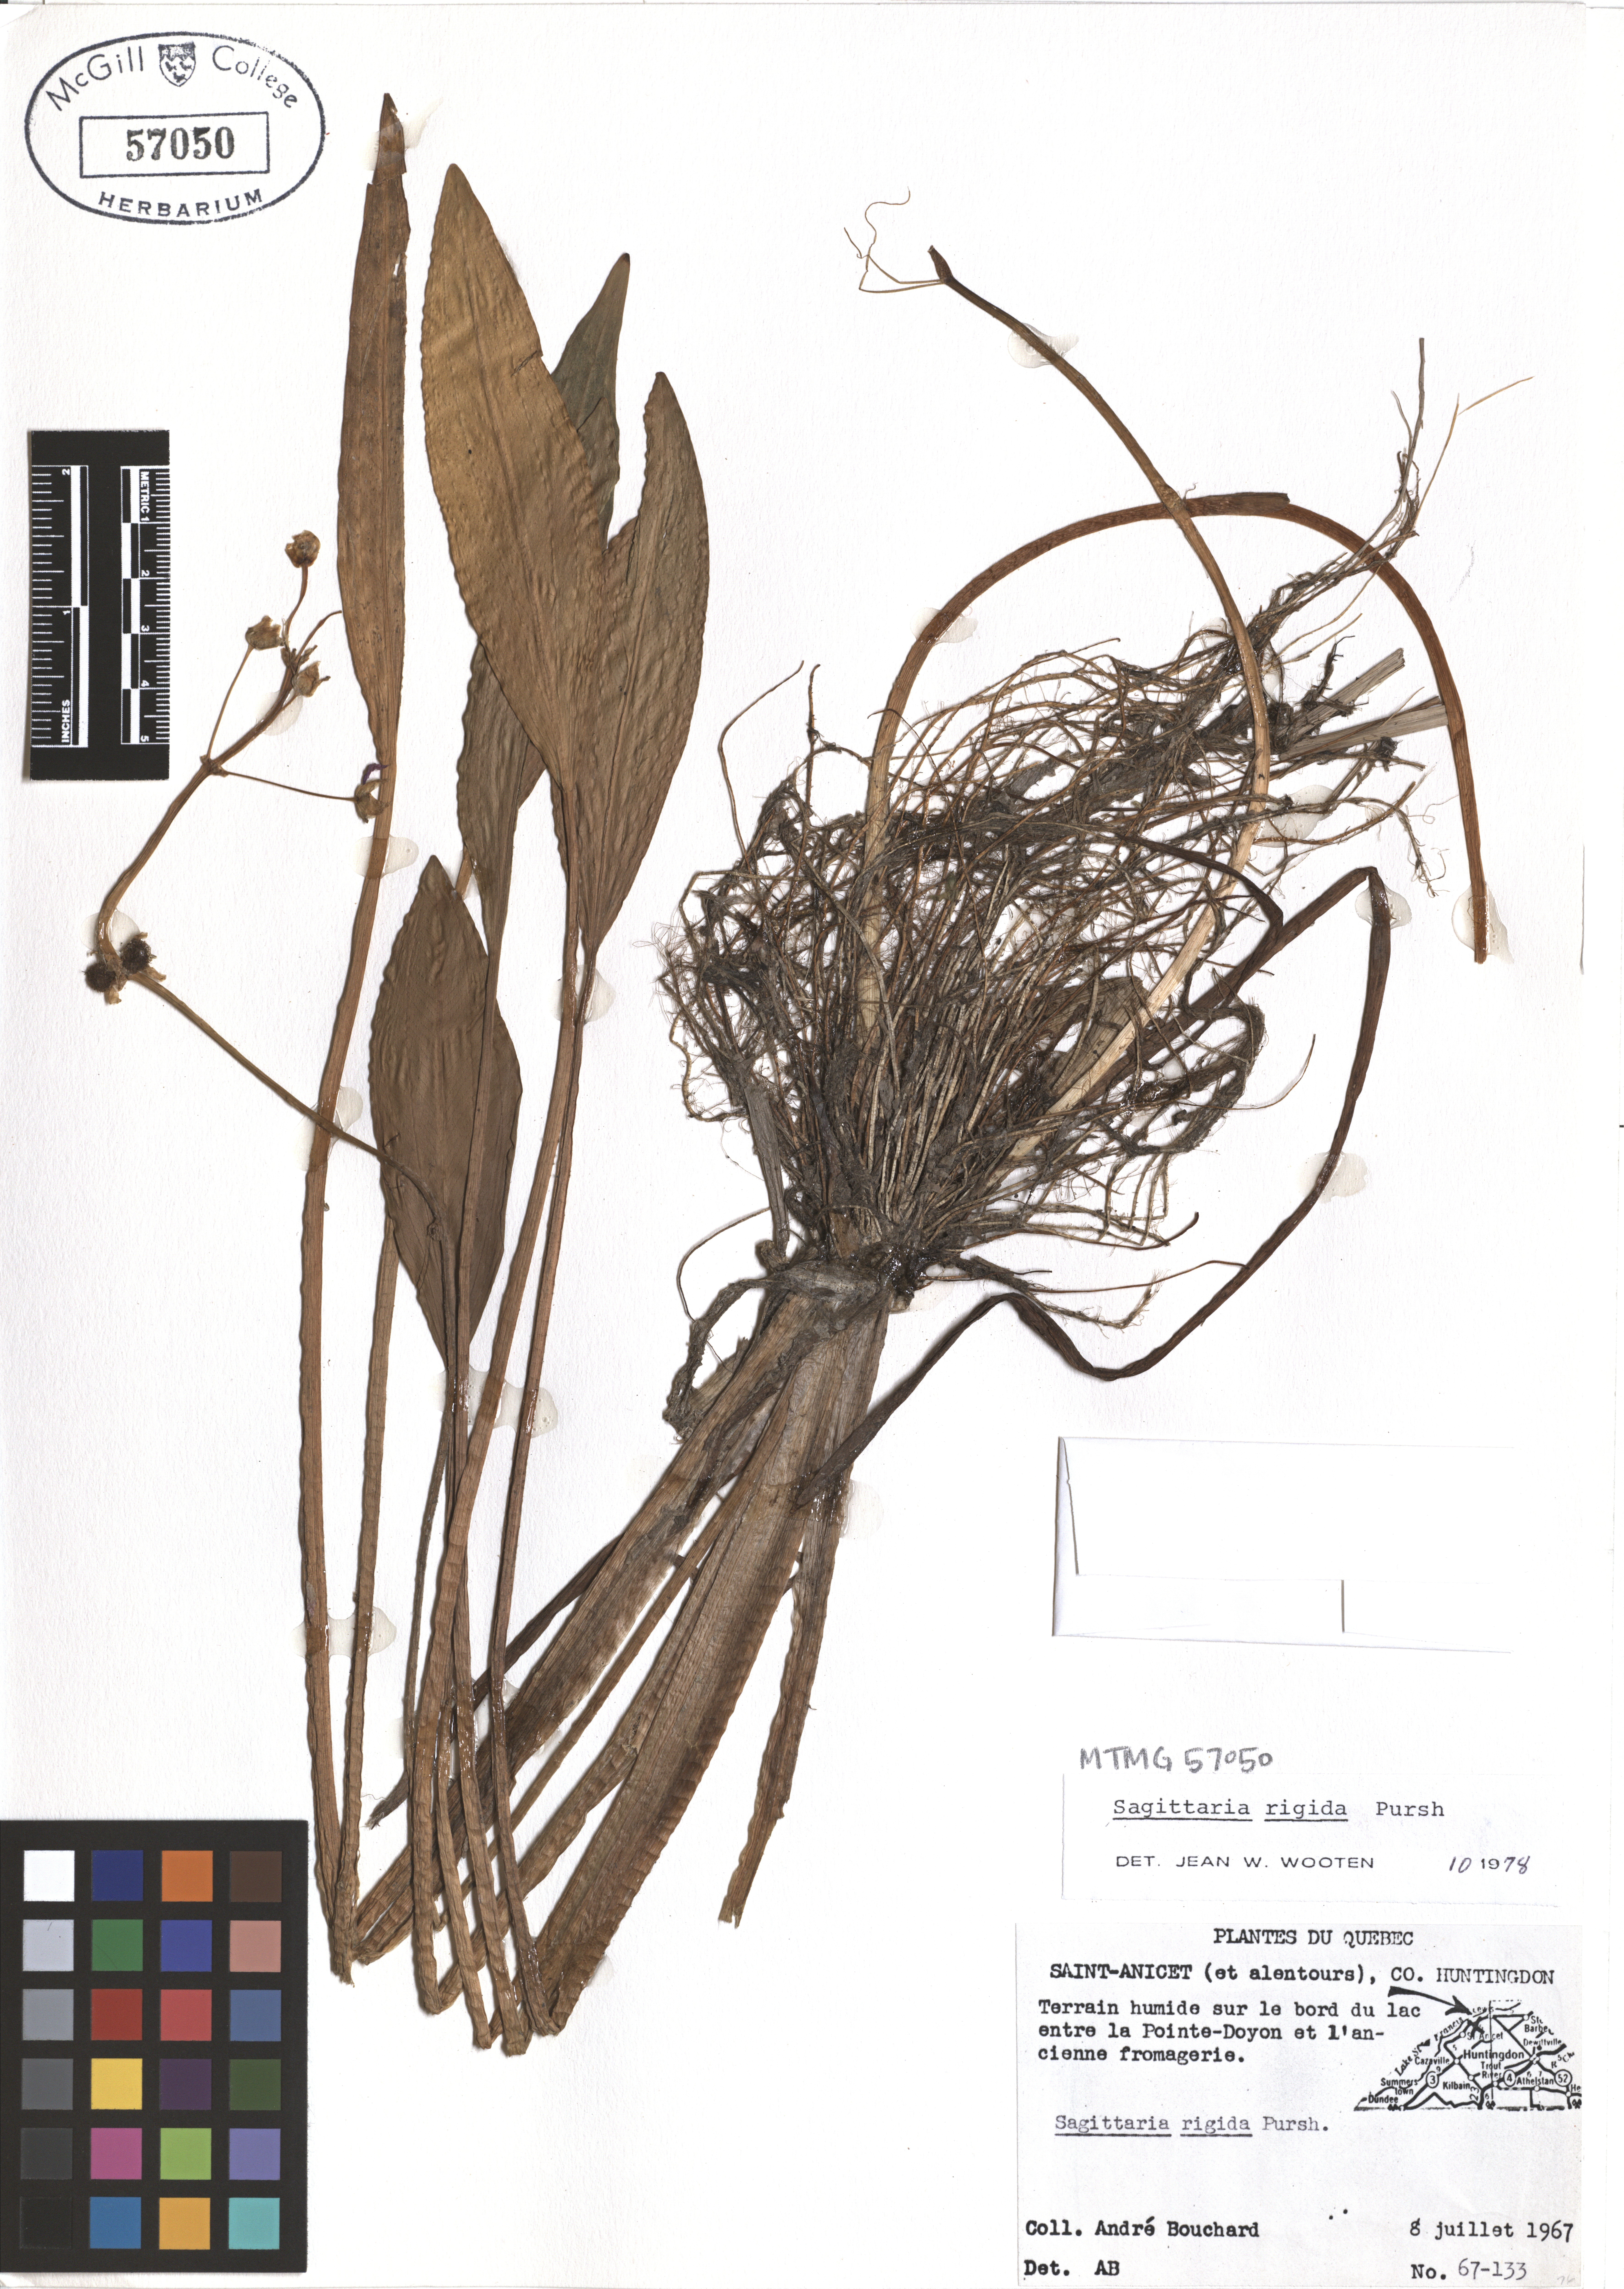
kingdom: Plantae
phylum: Tracheophyta
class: Liliopsida
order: Alismatales
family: Alismataceae
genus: Sagittaria
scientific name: Sagittaria rigida
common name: Canadian arrowhead
